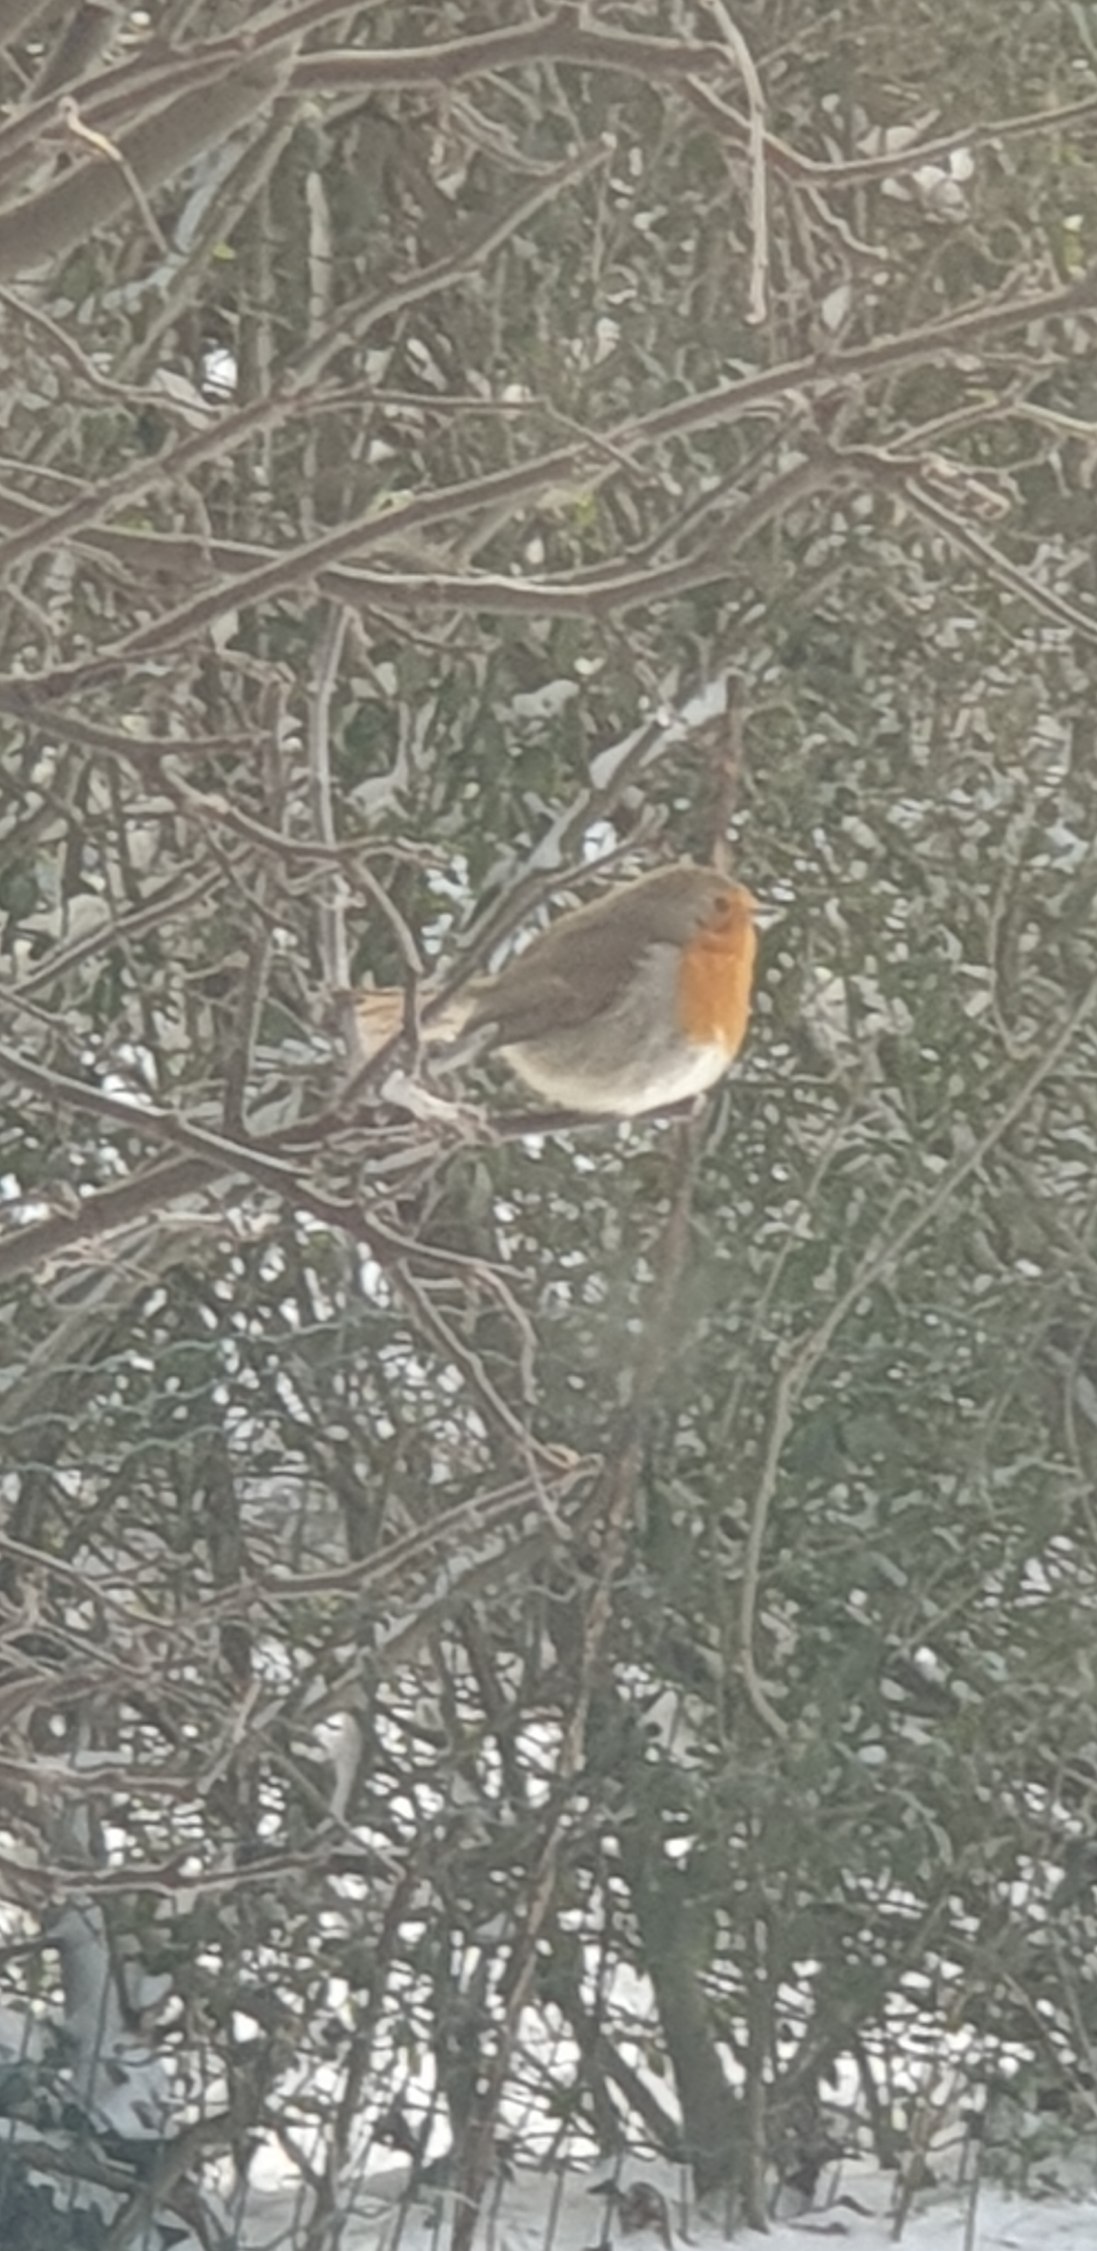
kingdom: Animalia
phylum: Chordata
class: Aves
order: Passeriformes
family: Muscicapidae
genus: Erithacus
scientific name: Erithacus rubecula
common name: Rødhals/rødkælk
